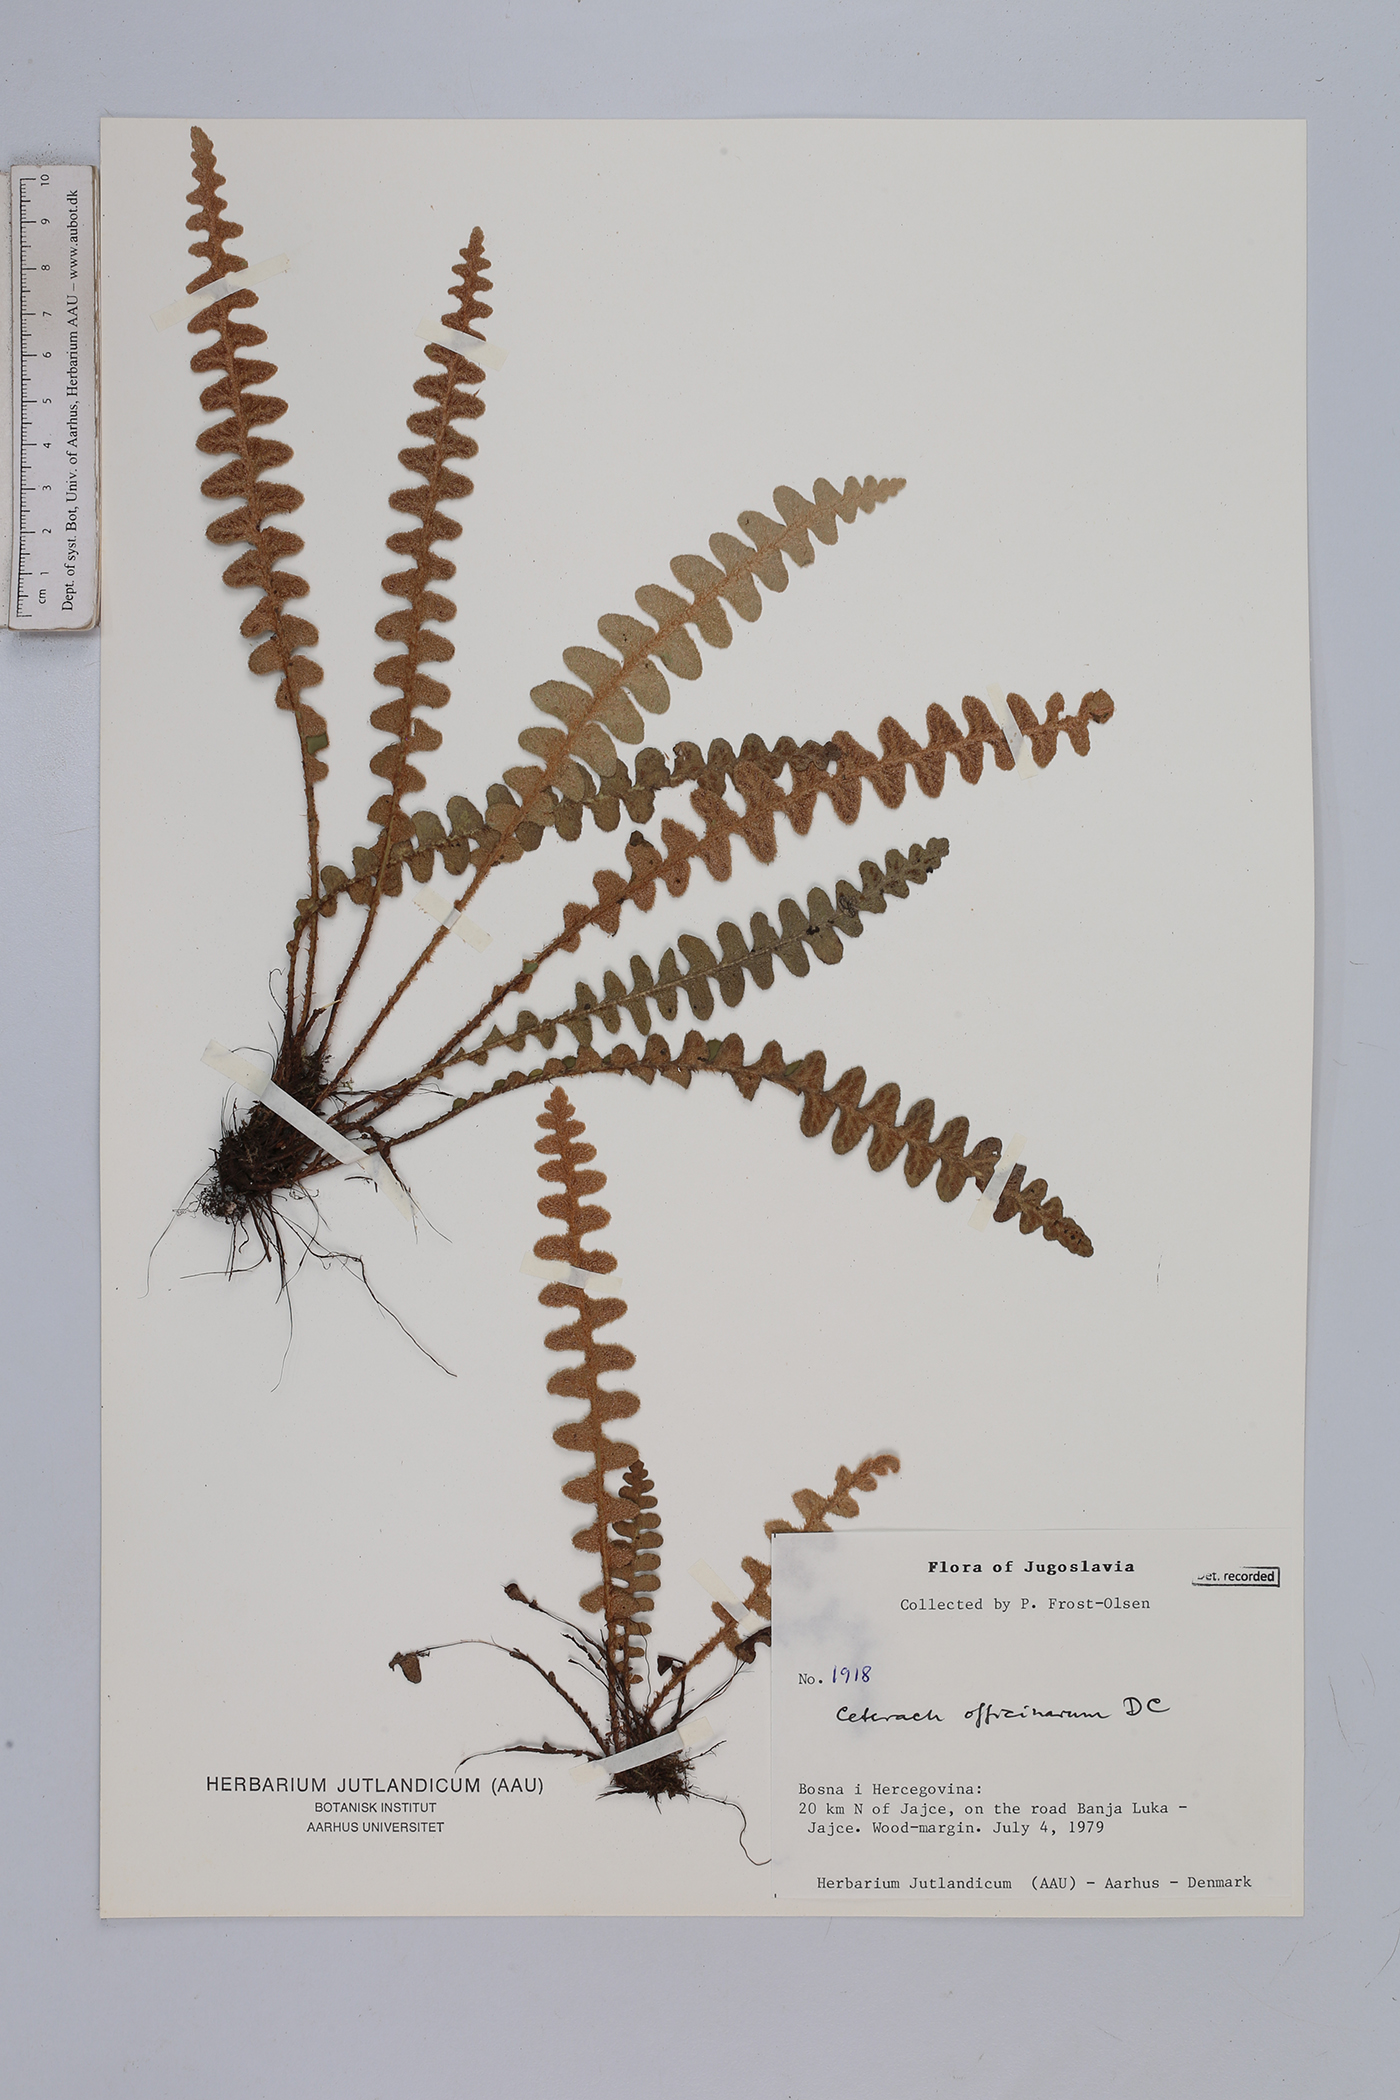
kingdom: Plantae
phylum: Tracheophyta
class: Polypodiopsida
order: Polypodiales
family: Aspleniaceae
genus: Asplenium
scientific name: Asplenium ceterach
